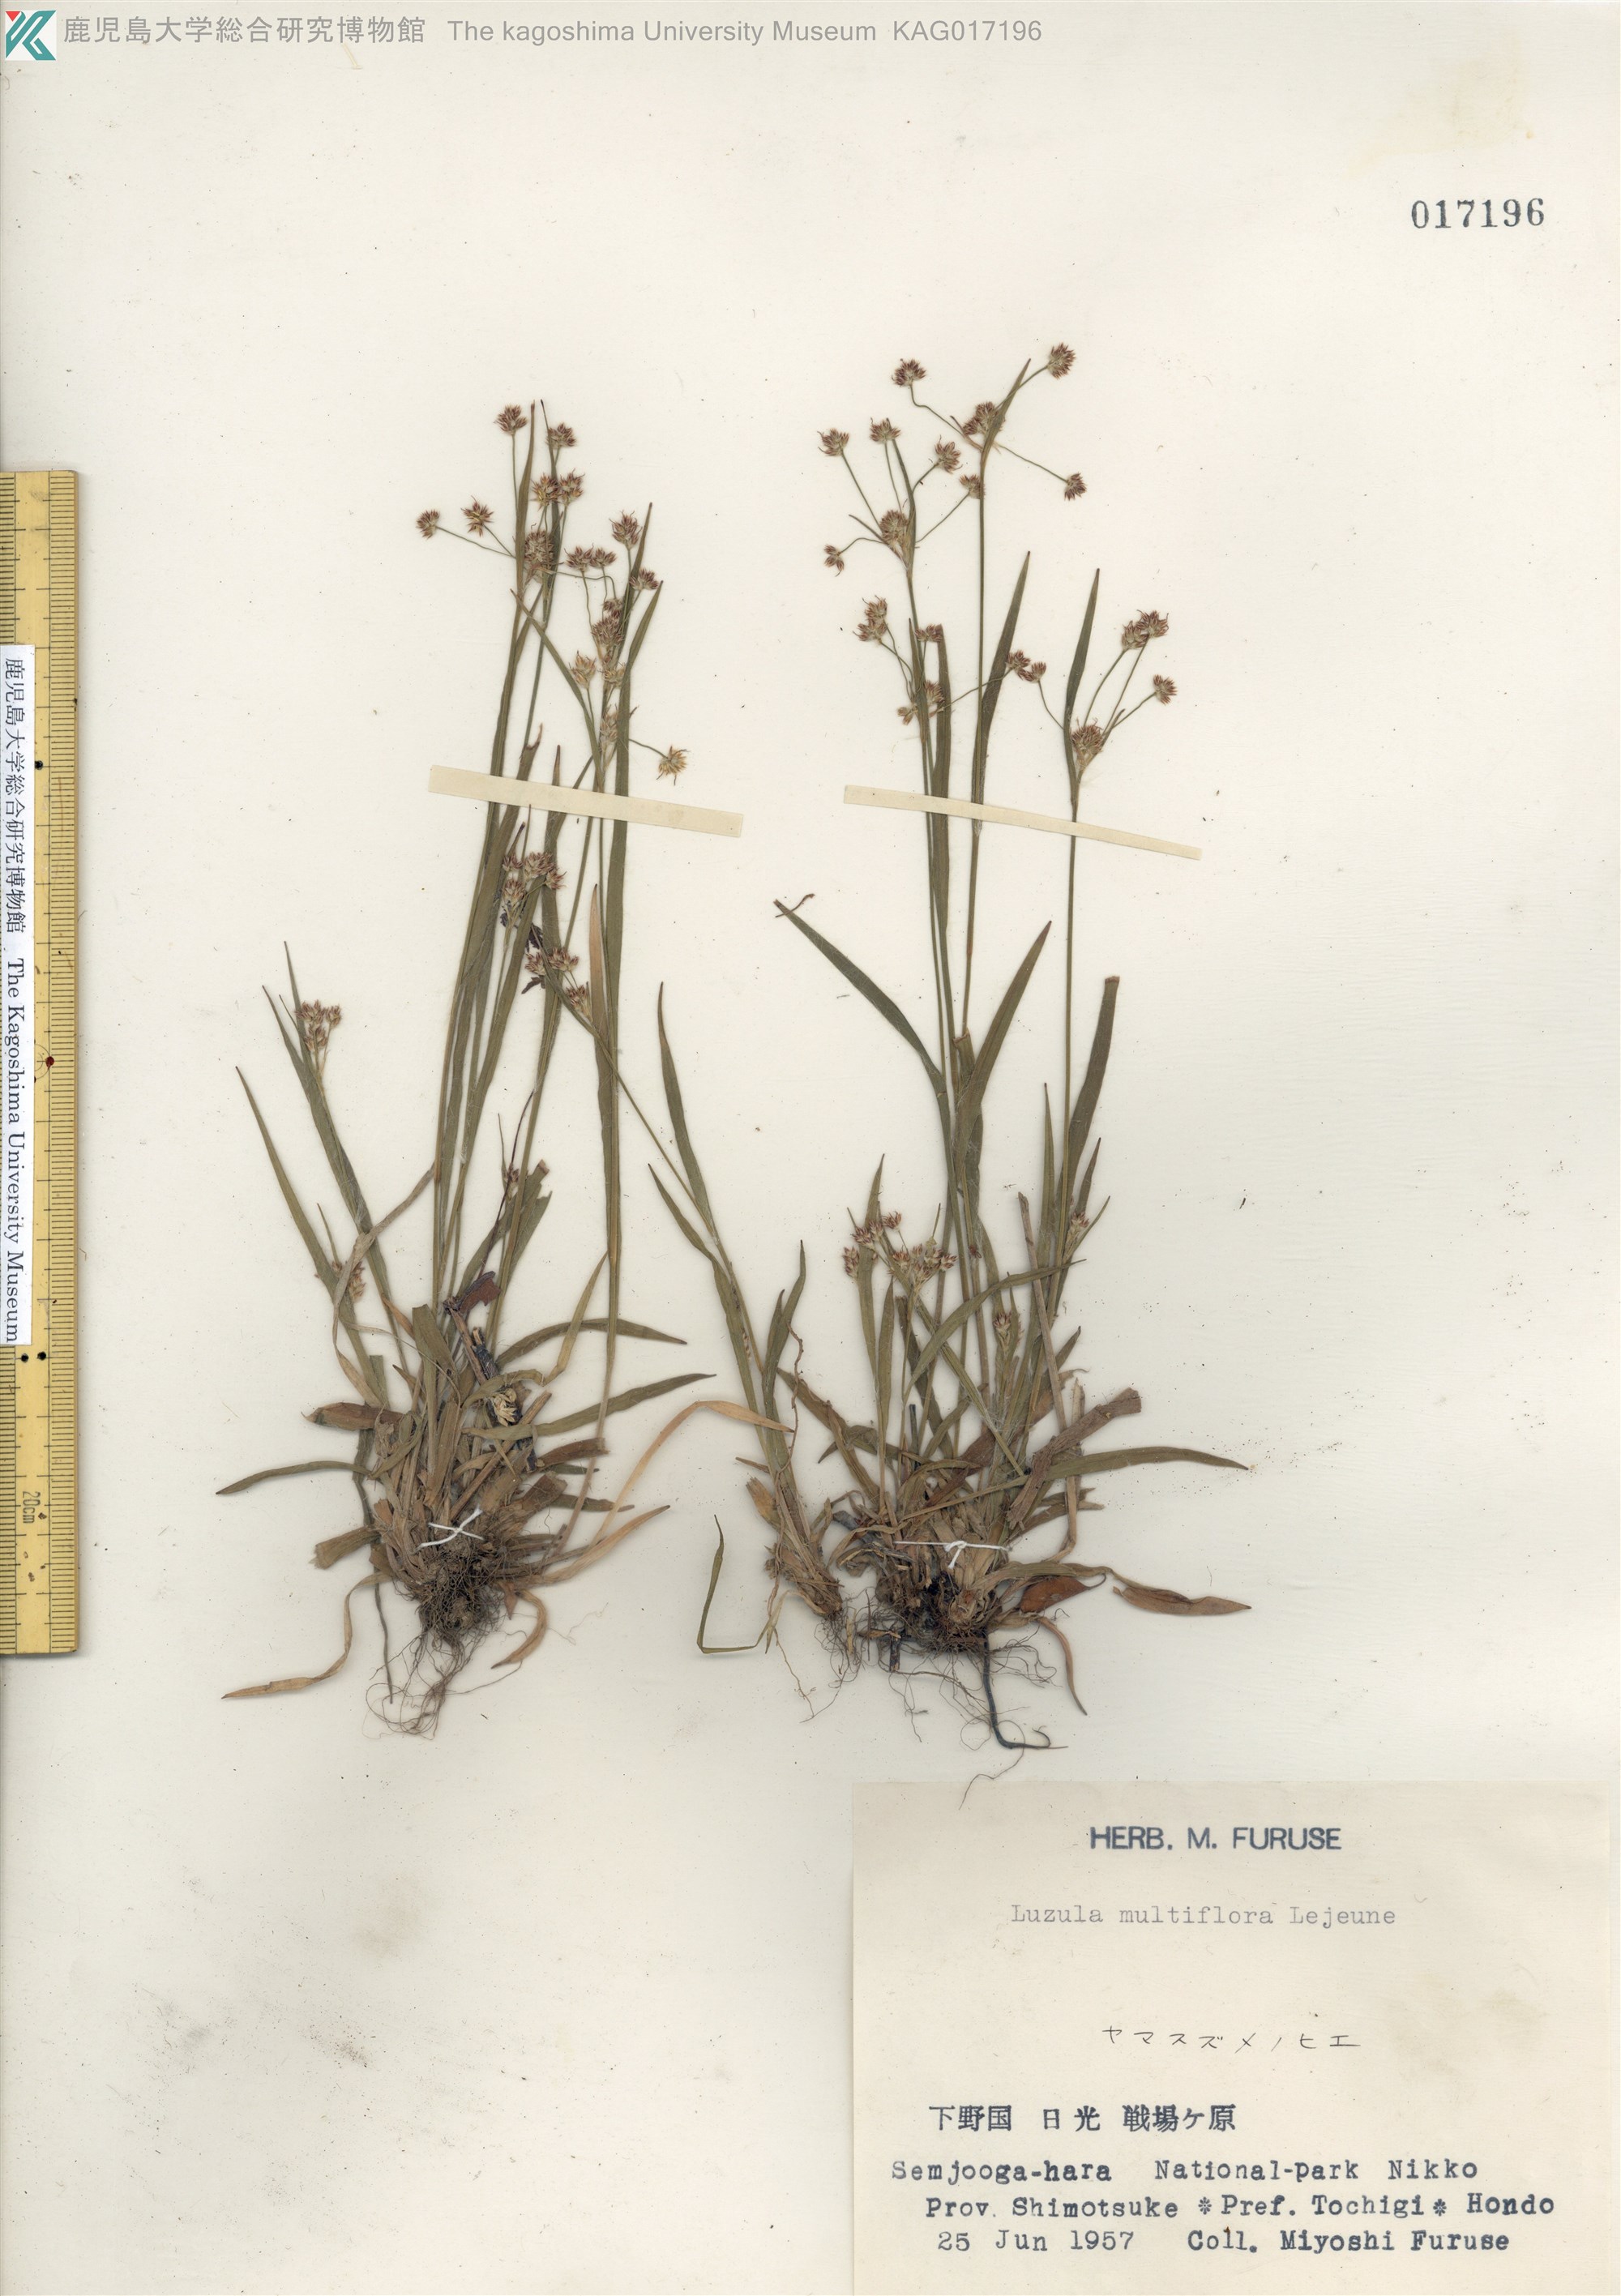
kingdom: Plantae
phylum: Tracheophyta
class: Liliopsida
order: Poales
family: Juncaceae
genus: Luzula
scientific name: Luzula multiflora
